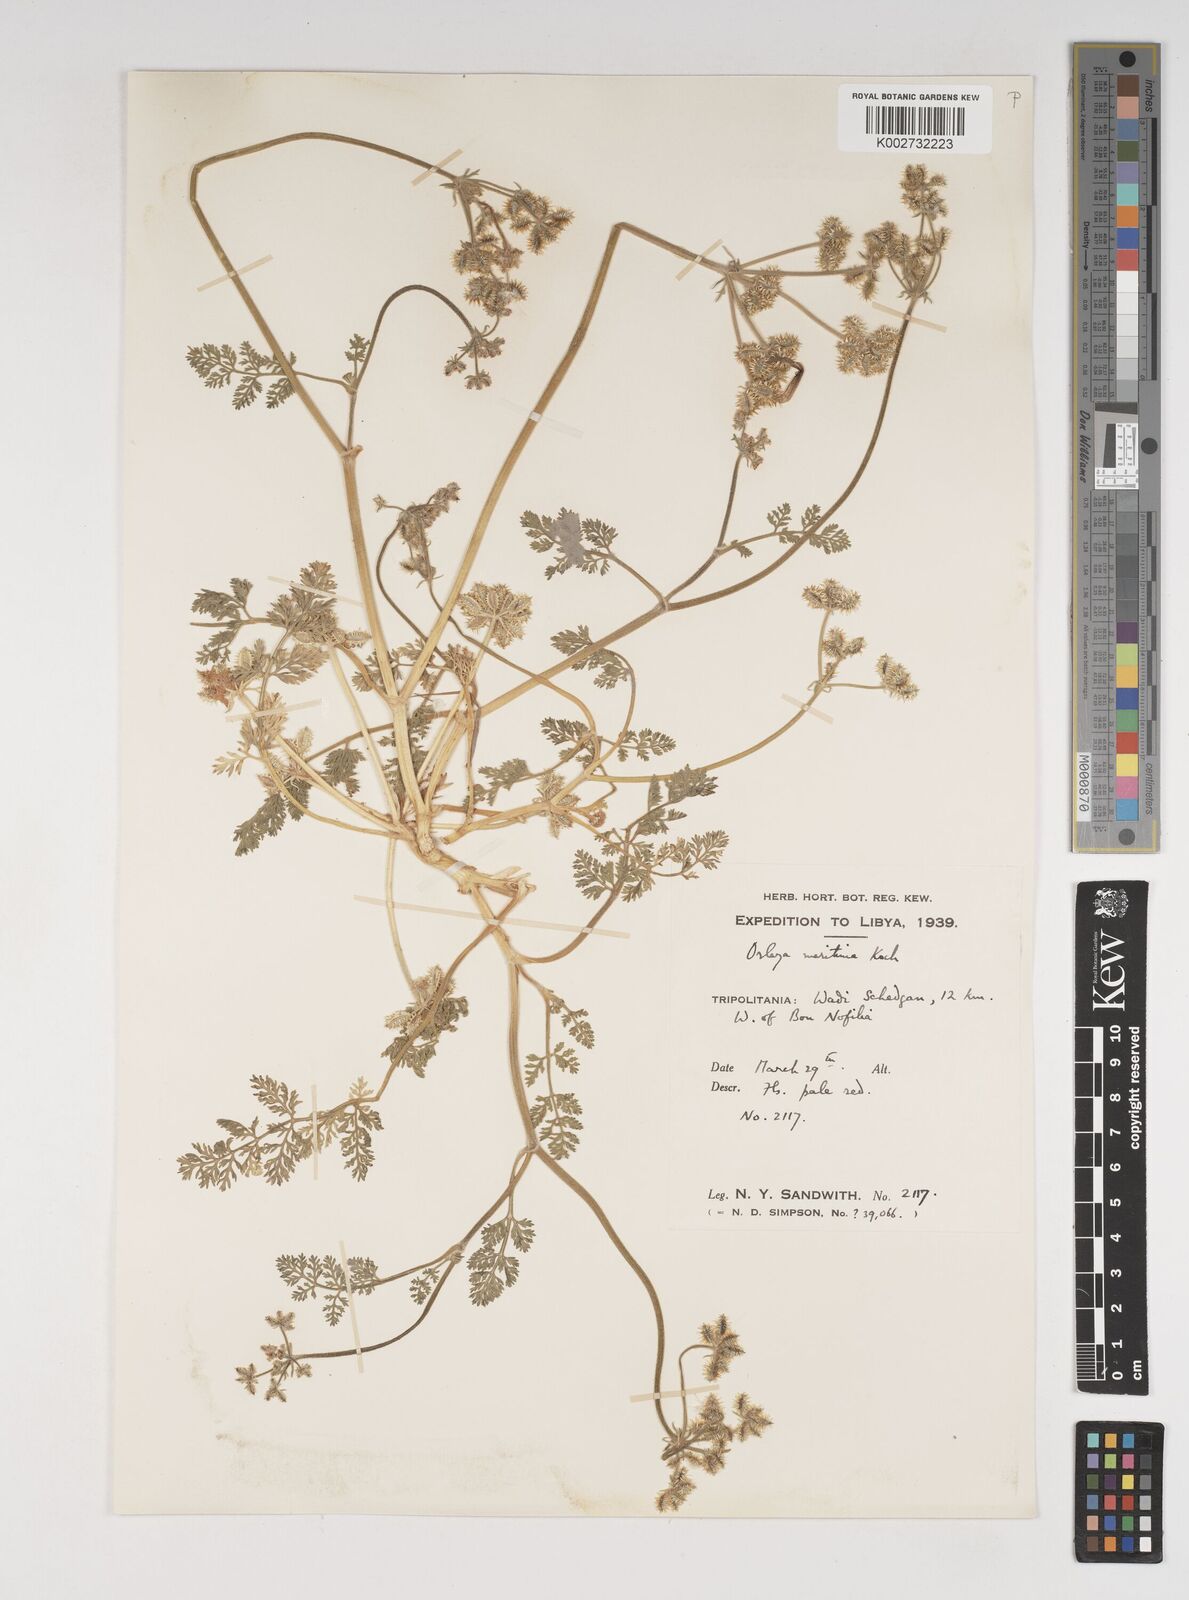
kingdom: Plantae
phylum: Tracheophyta
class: Magnoliopsida
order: Apiales
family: Apiaceae
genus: Daucus
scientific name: Daucus pumilus
